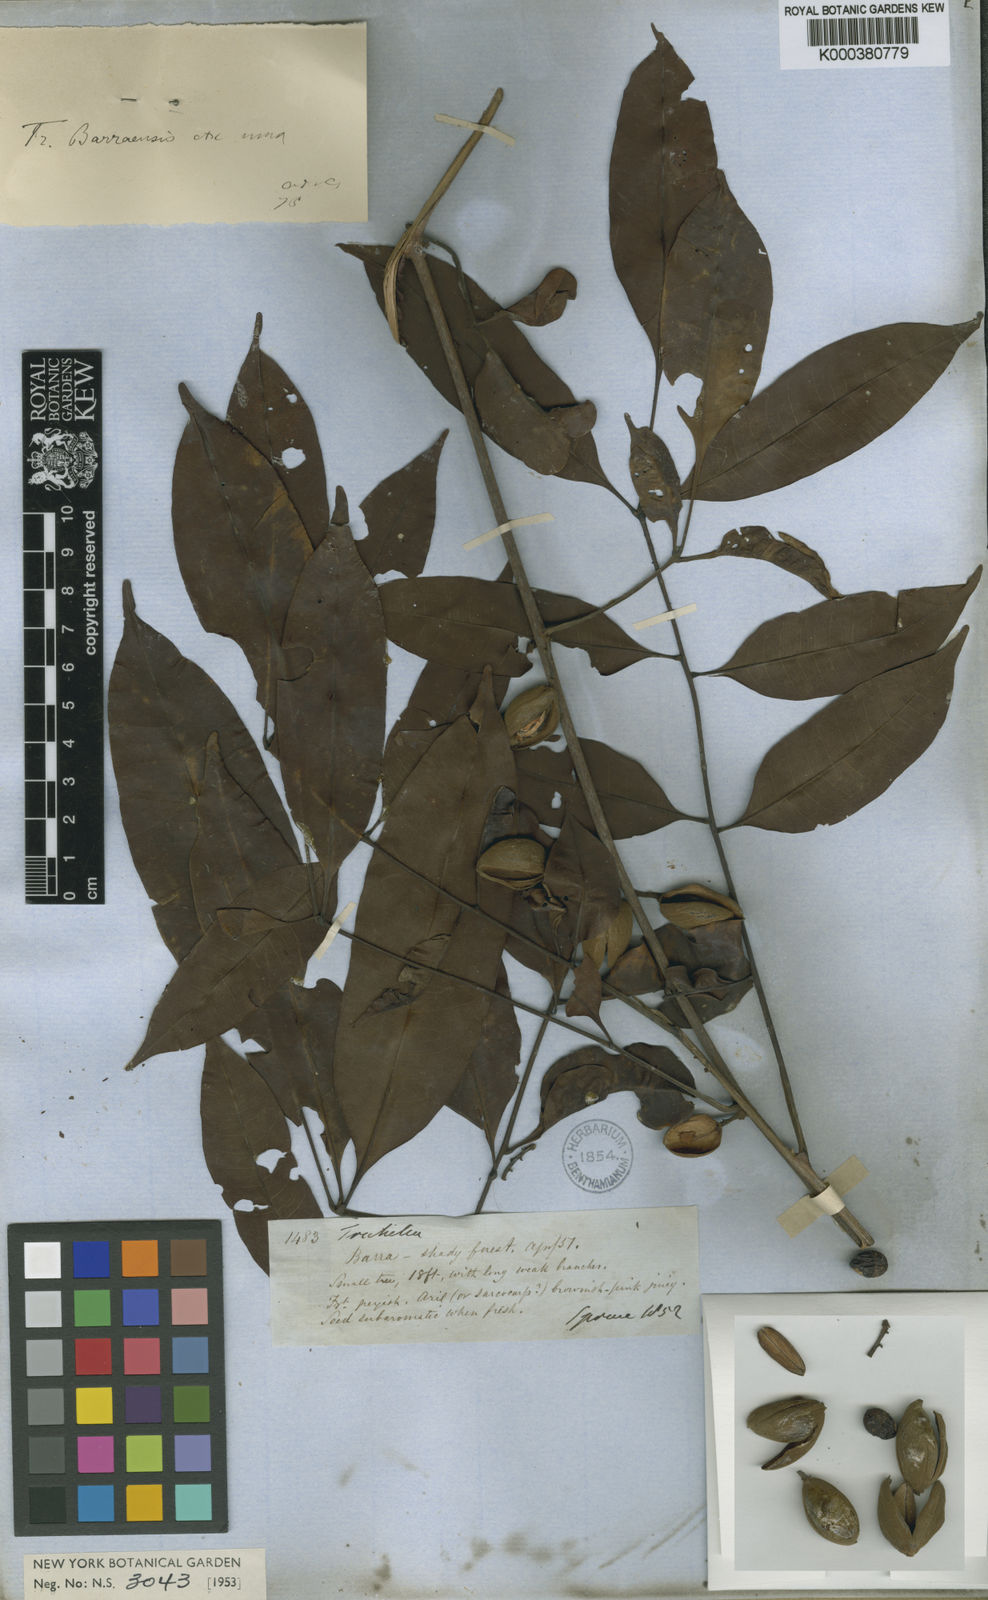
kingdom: Plantae
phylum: Tracheophyta
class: Magnoliopsida
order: Sapindales
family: Meliaceae
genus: Trichilia
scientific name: Trichilia rubra
